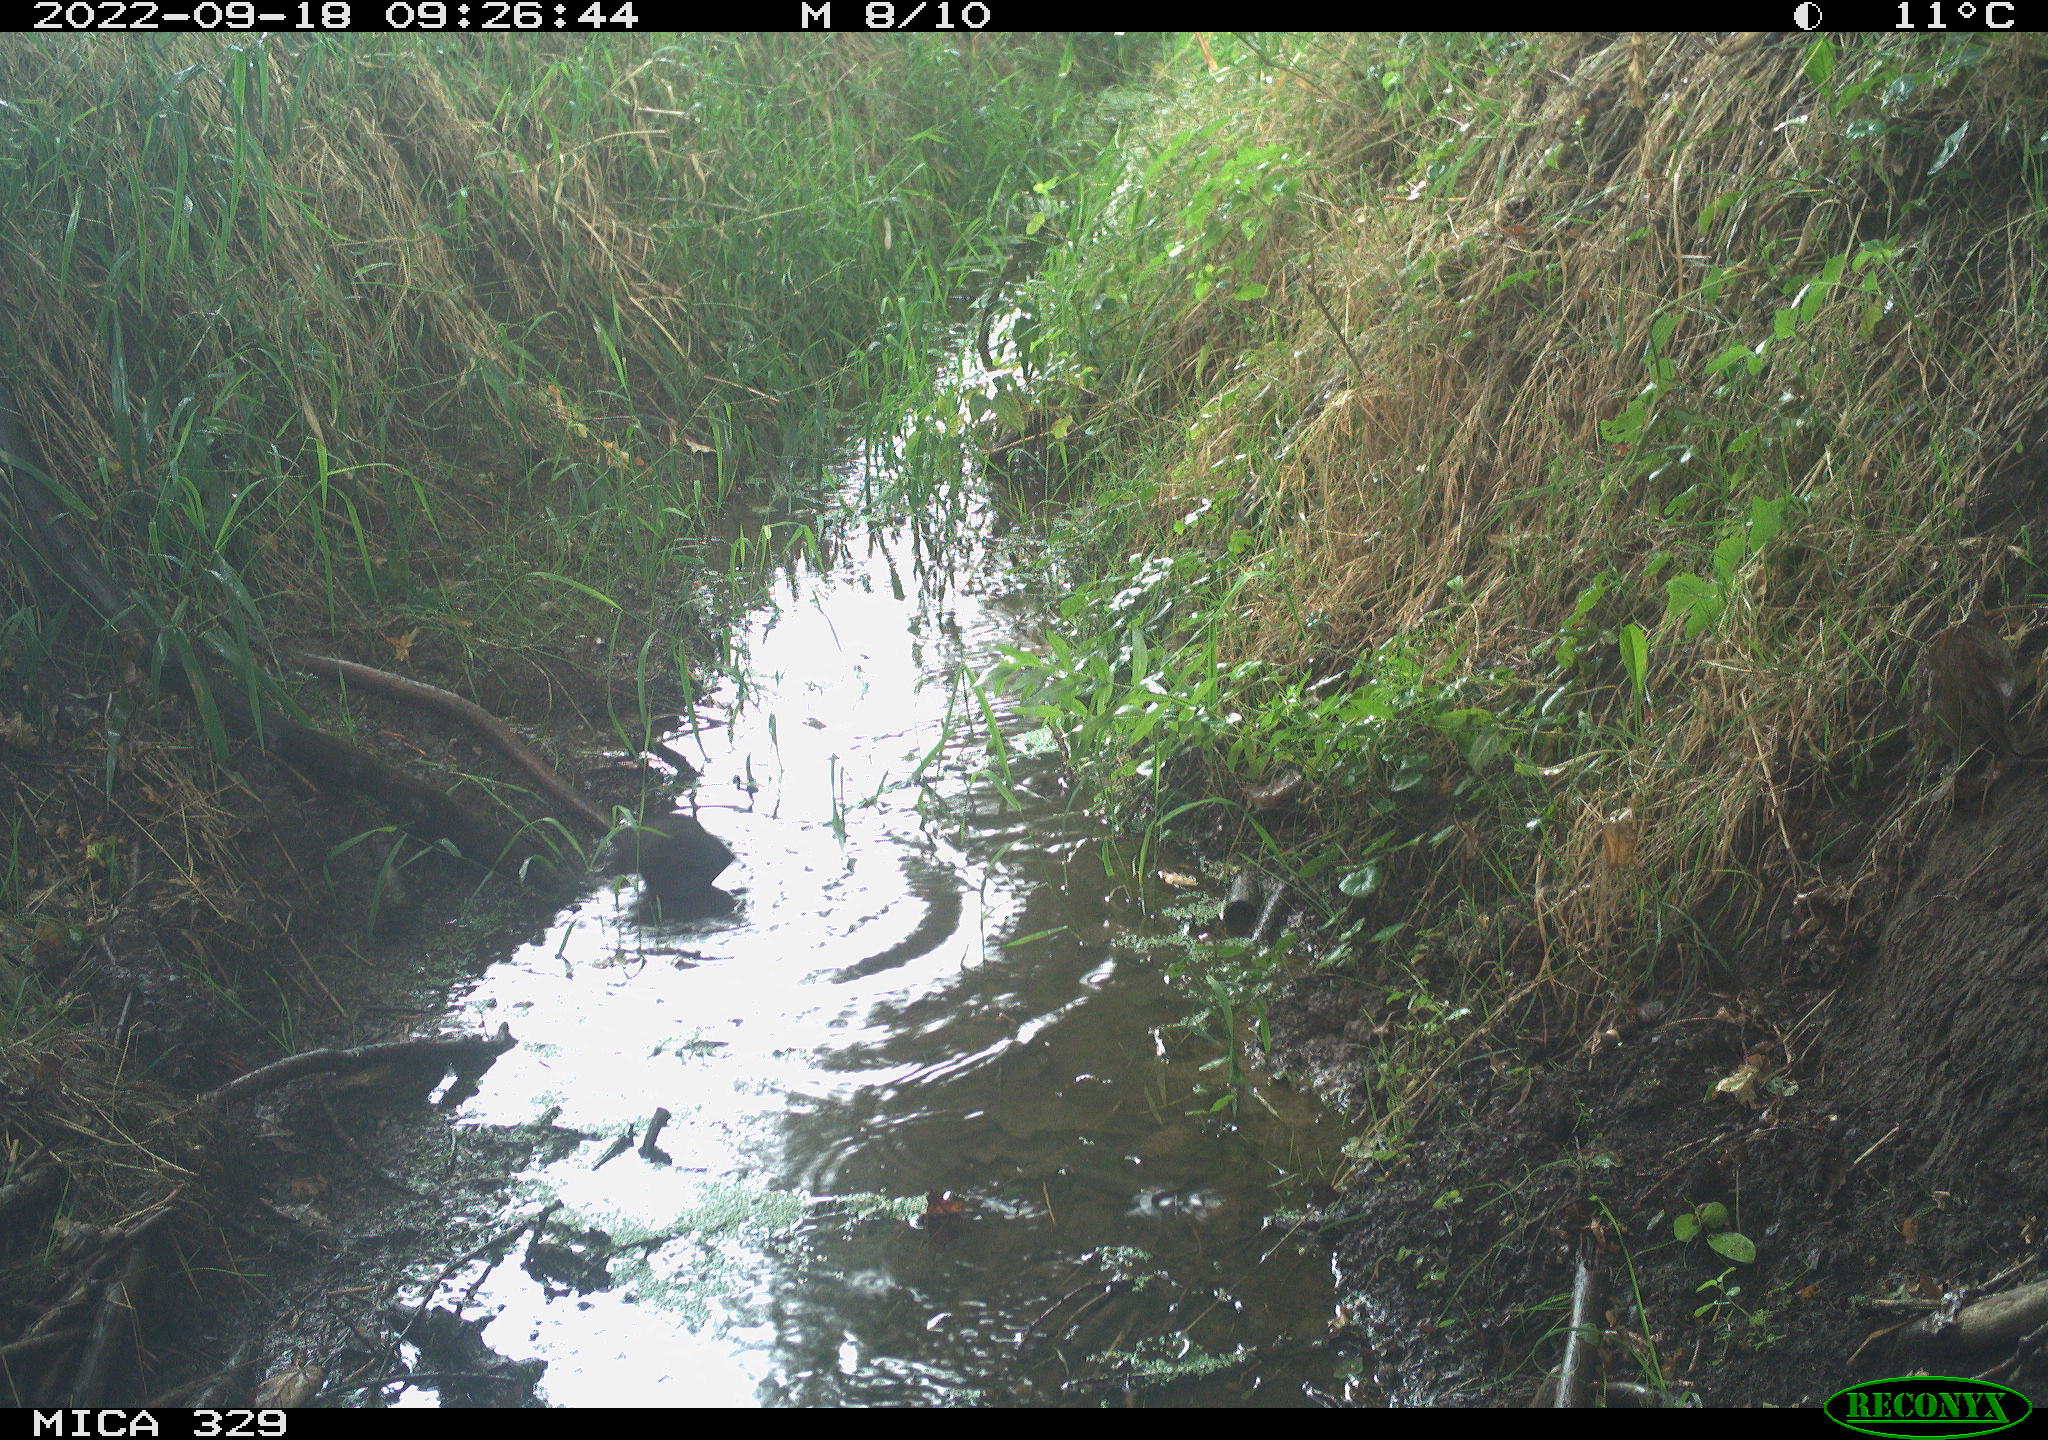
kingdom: Animalia
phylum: Chordata
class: Aves
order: Passeriformes
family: Turdidae
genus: Turdus
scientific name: Turdus merula
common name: Common blackbird
